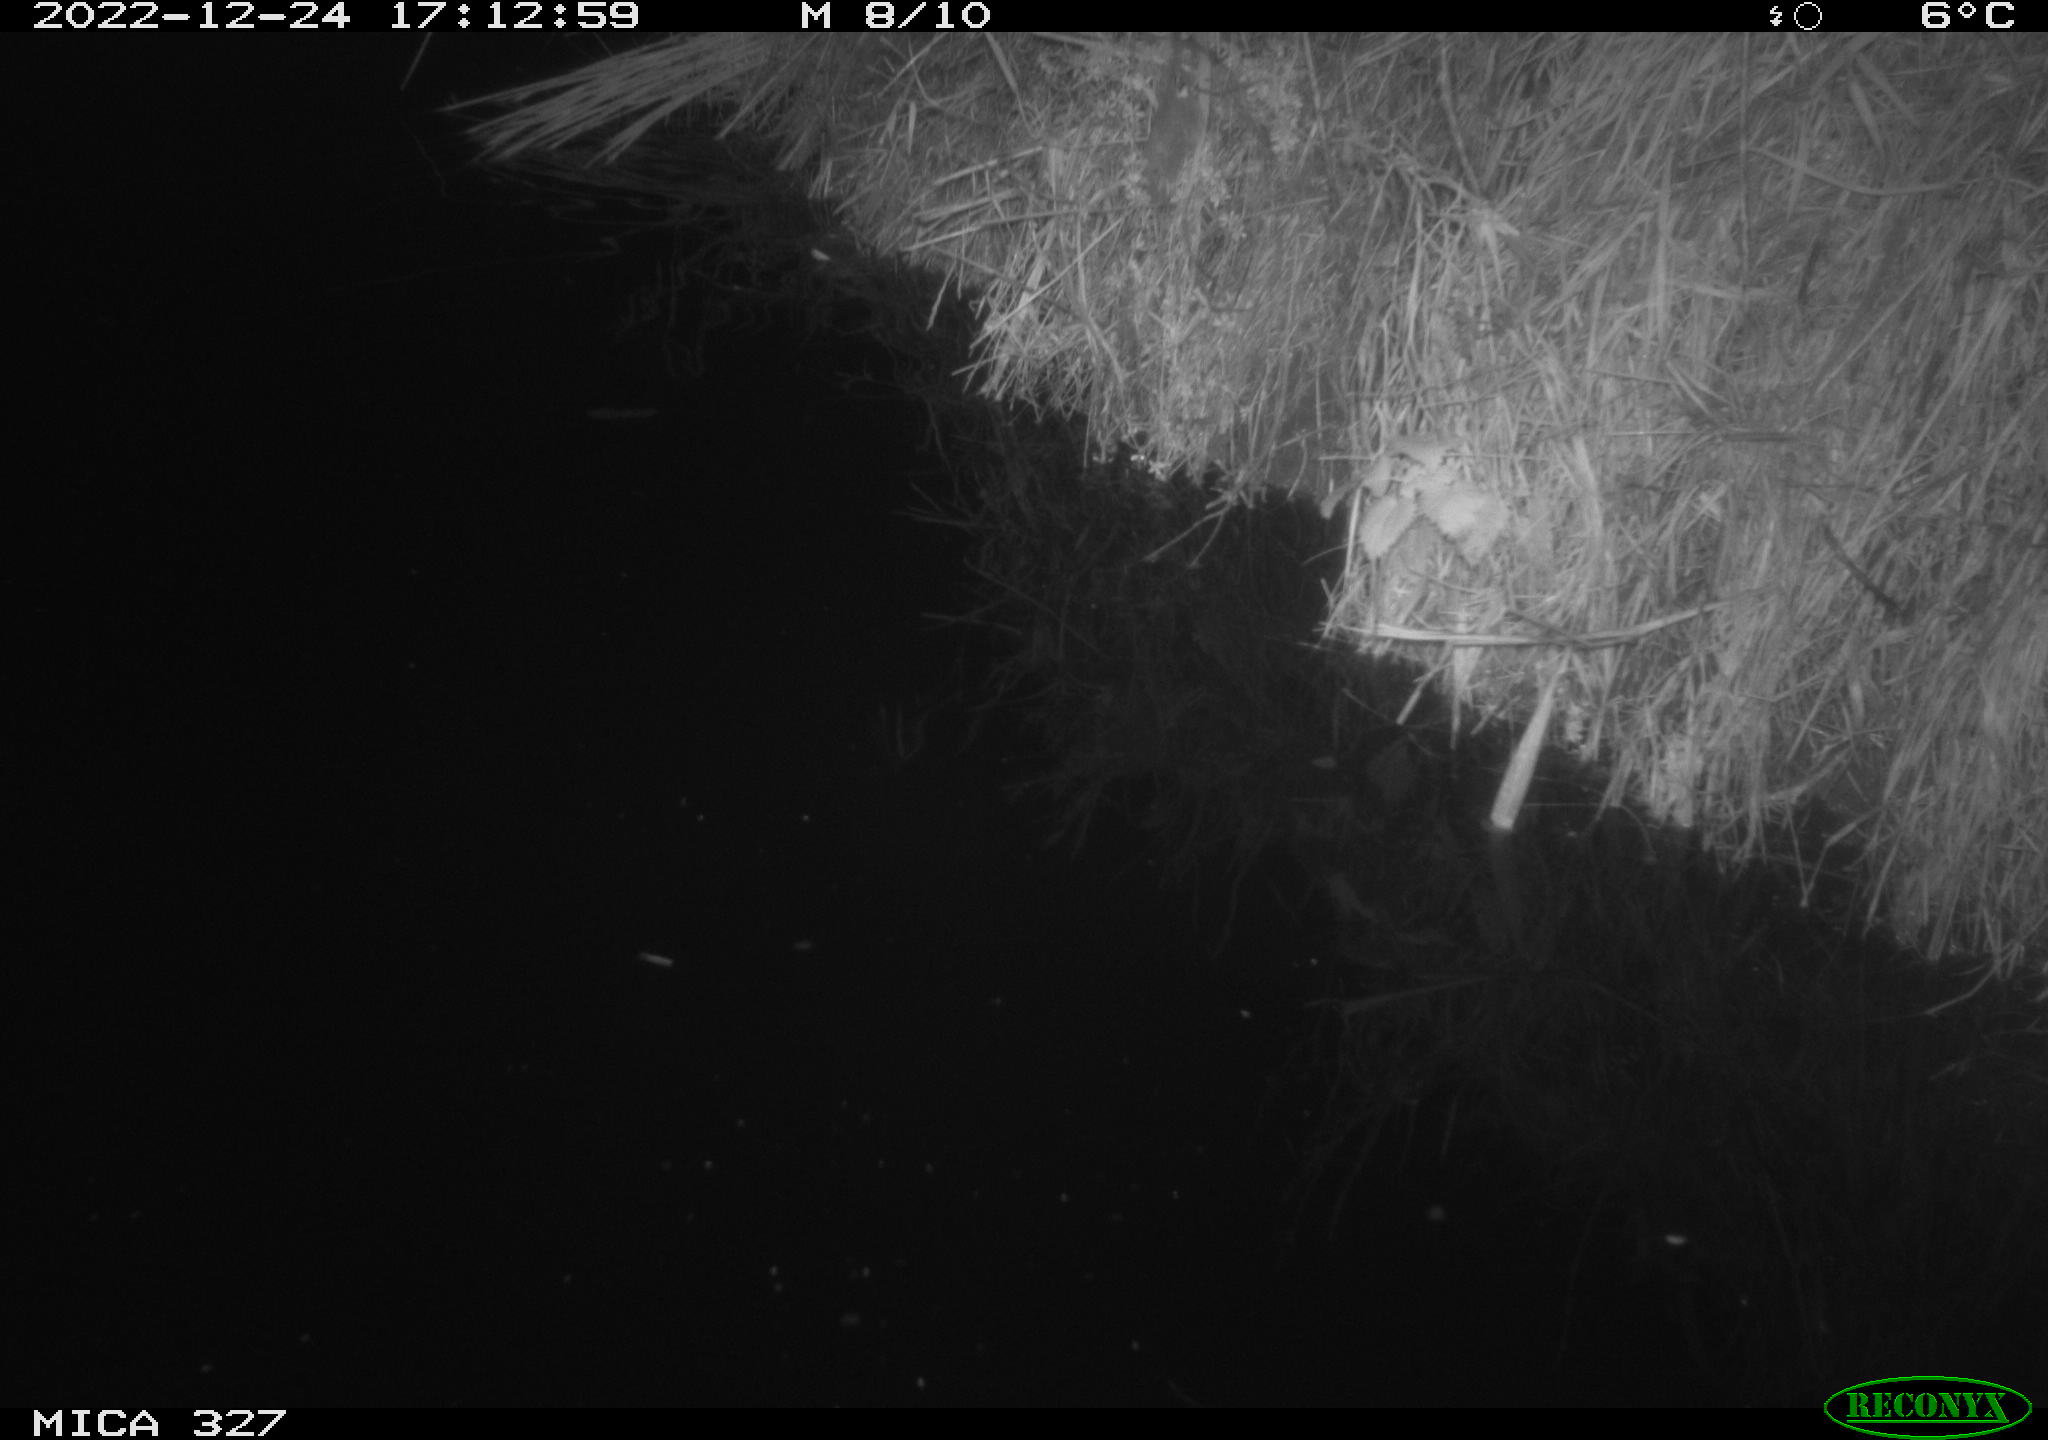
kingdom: Animalia
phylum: Chordata
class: Aves
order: Gruiformes
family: Rallidae
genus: Gallinula
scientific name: Gallinula chloropus
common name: Common moorhen
